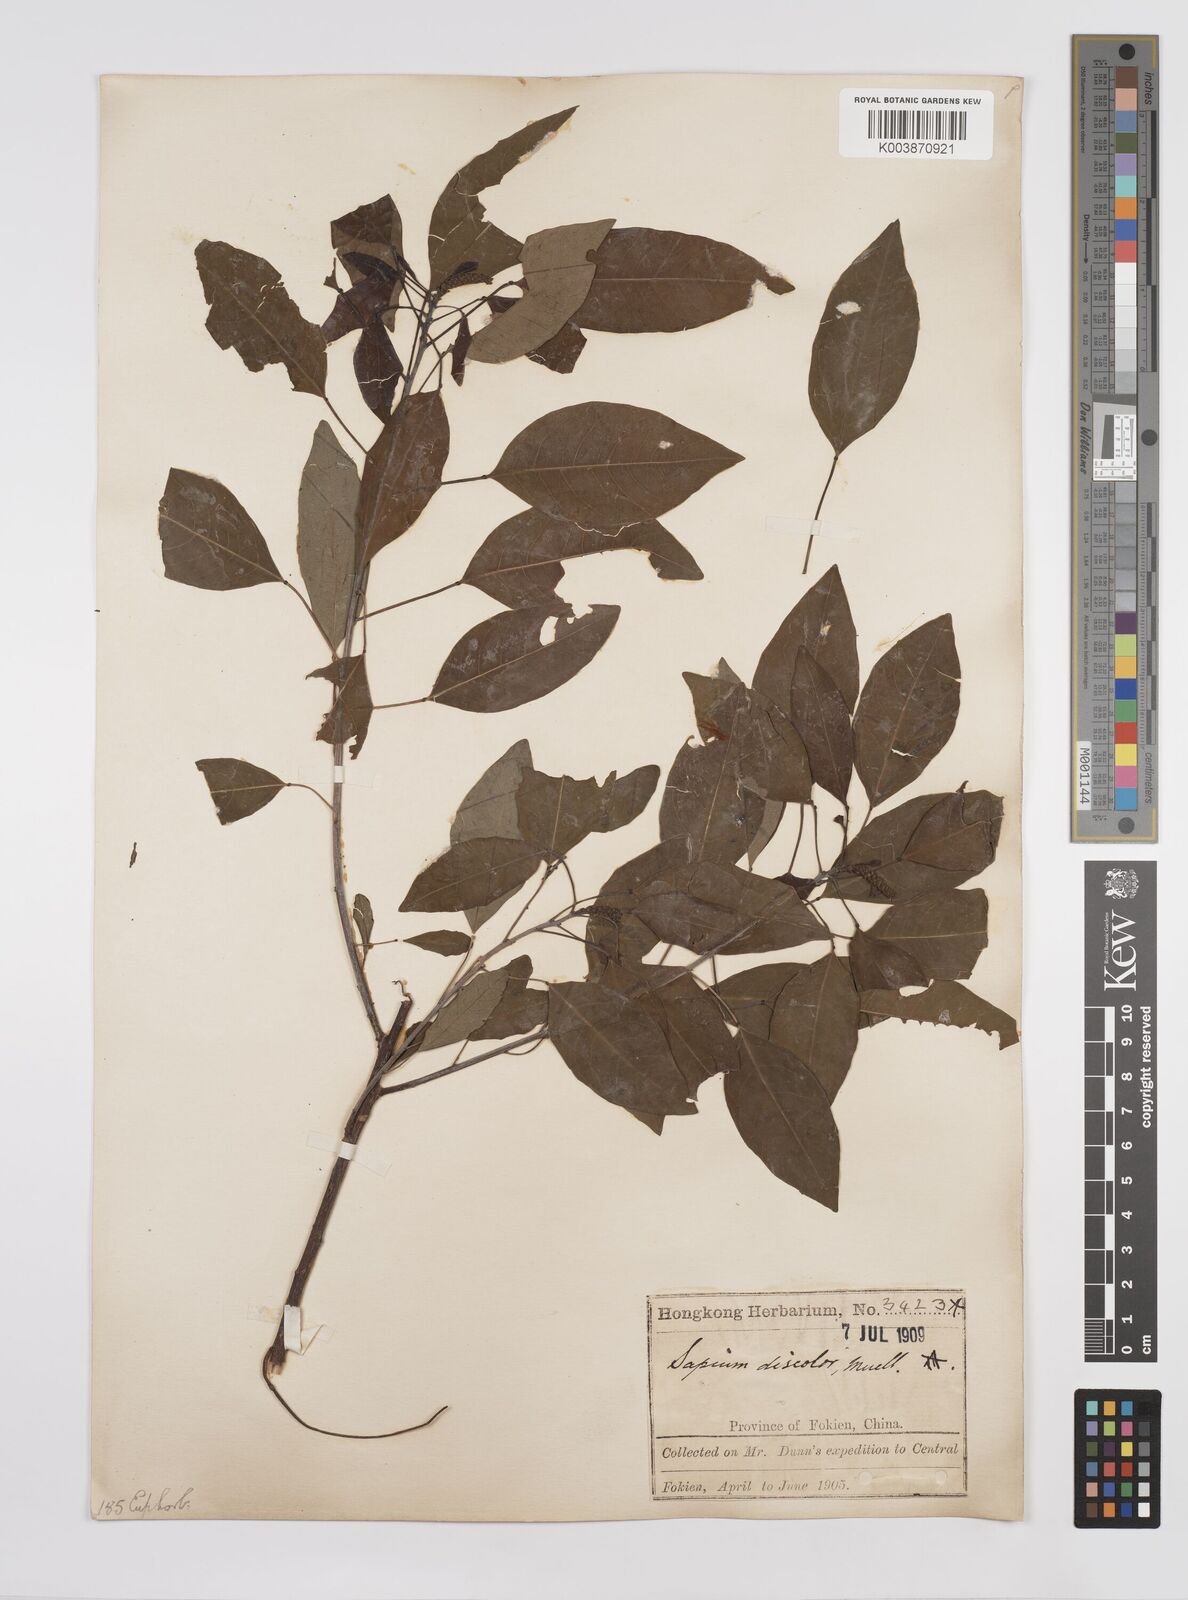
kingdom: Plantae
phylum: Tracheophyta
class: Magnoliopsida
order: Malpighiales
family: Euphorbiaceae
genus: Triadica
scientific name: Triadica cochinchinensis
